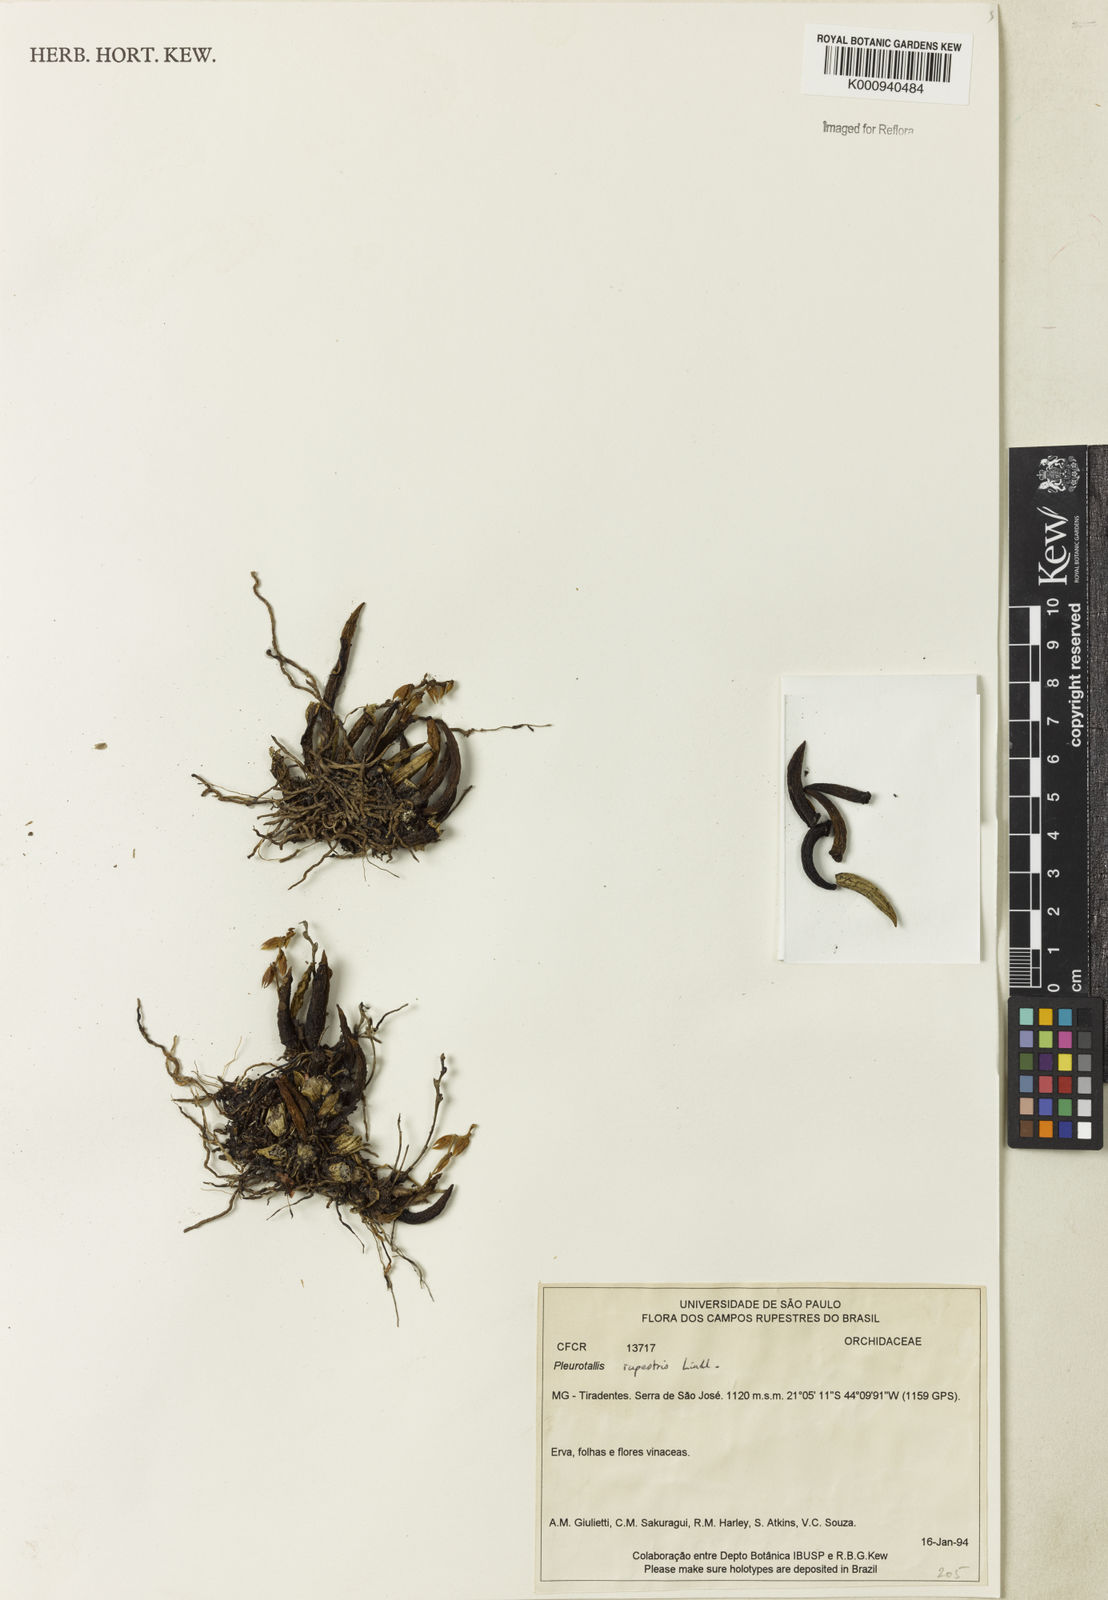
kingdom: Plantae
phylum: Tracheophyta
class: Liliopsida
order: Asparagales
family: Orchidaceae
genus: Acianthera
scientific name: Acianthera teres
